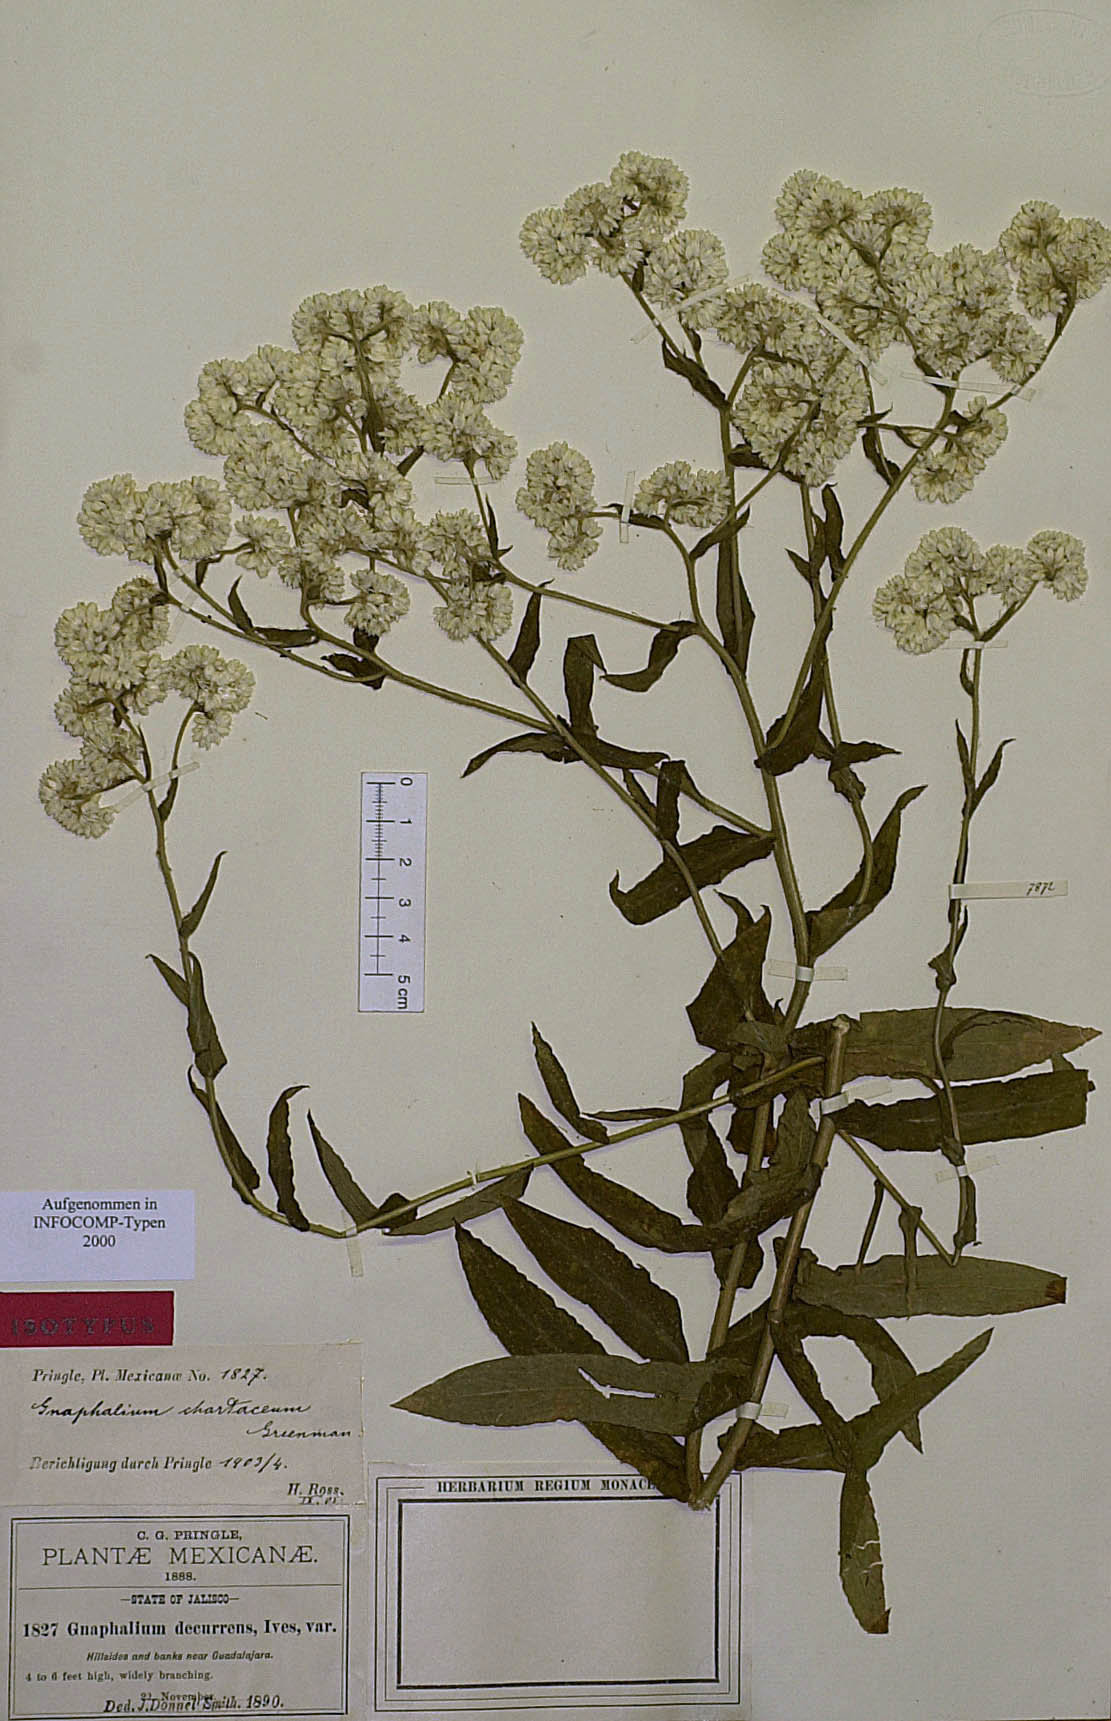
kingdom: Plantae
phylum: Tracheophyta
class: Magnoliopsida
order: Asterales
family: Asteraceae
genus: Pseudognaphalium
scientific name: Pseudognaphalium chartaceum
